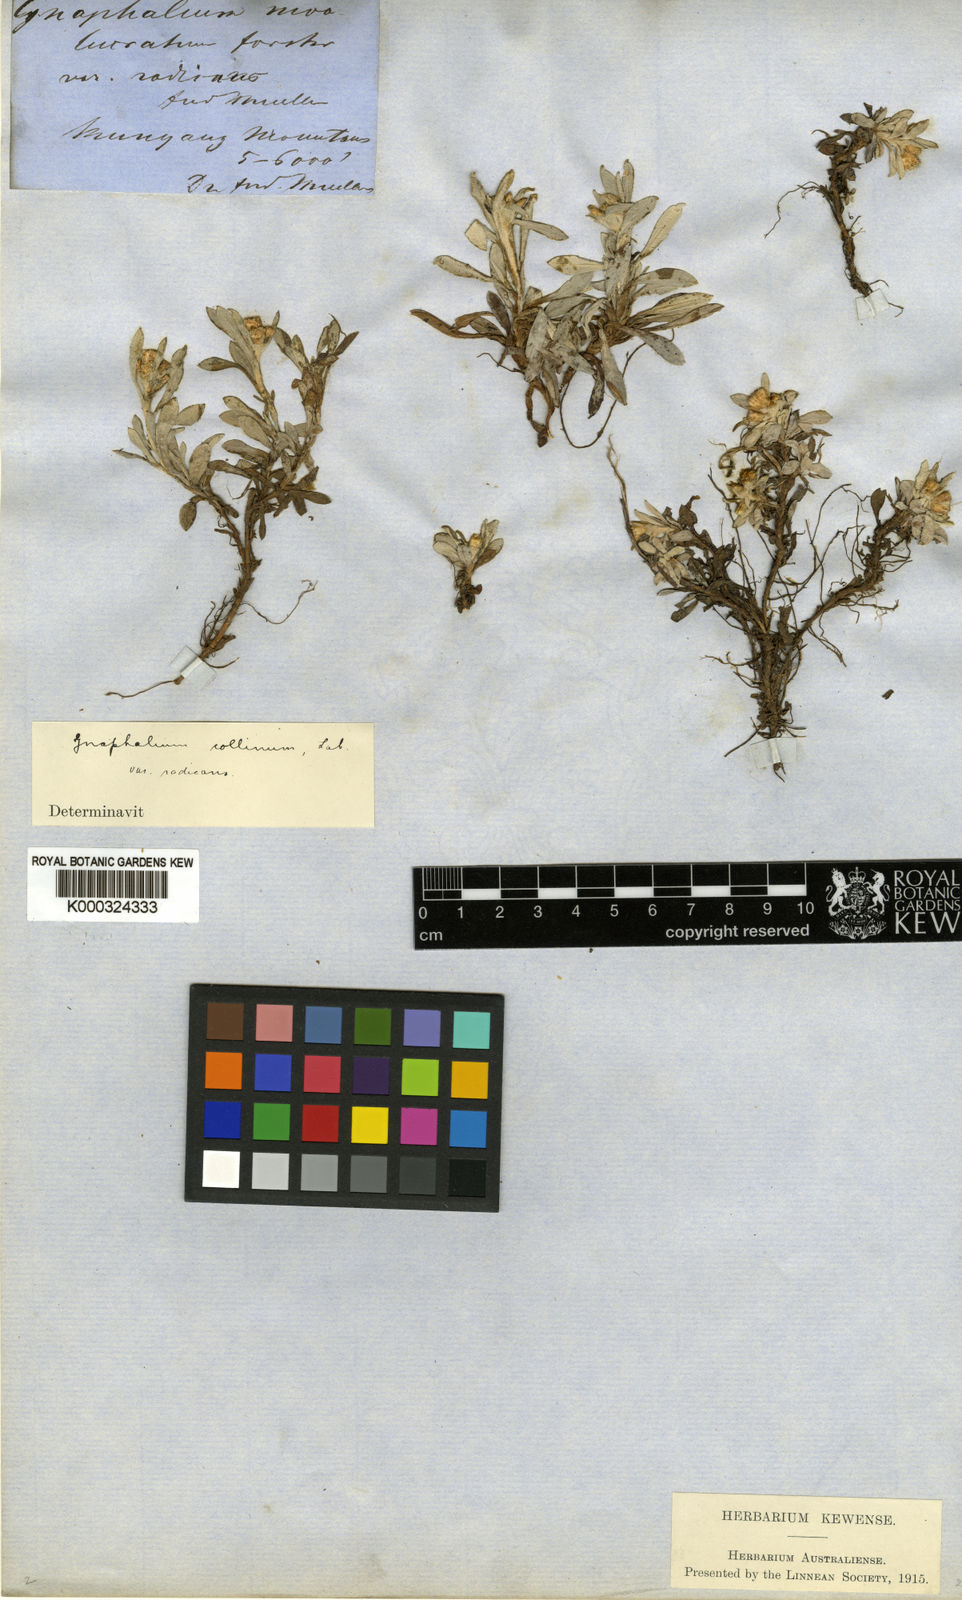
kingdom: Plantae
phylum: Tracheophyta
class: Magnoliopsida
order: Asterales
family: Asteraceae
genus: Euchiton
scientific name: Euchiton gymnocephalus
